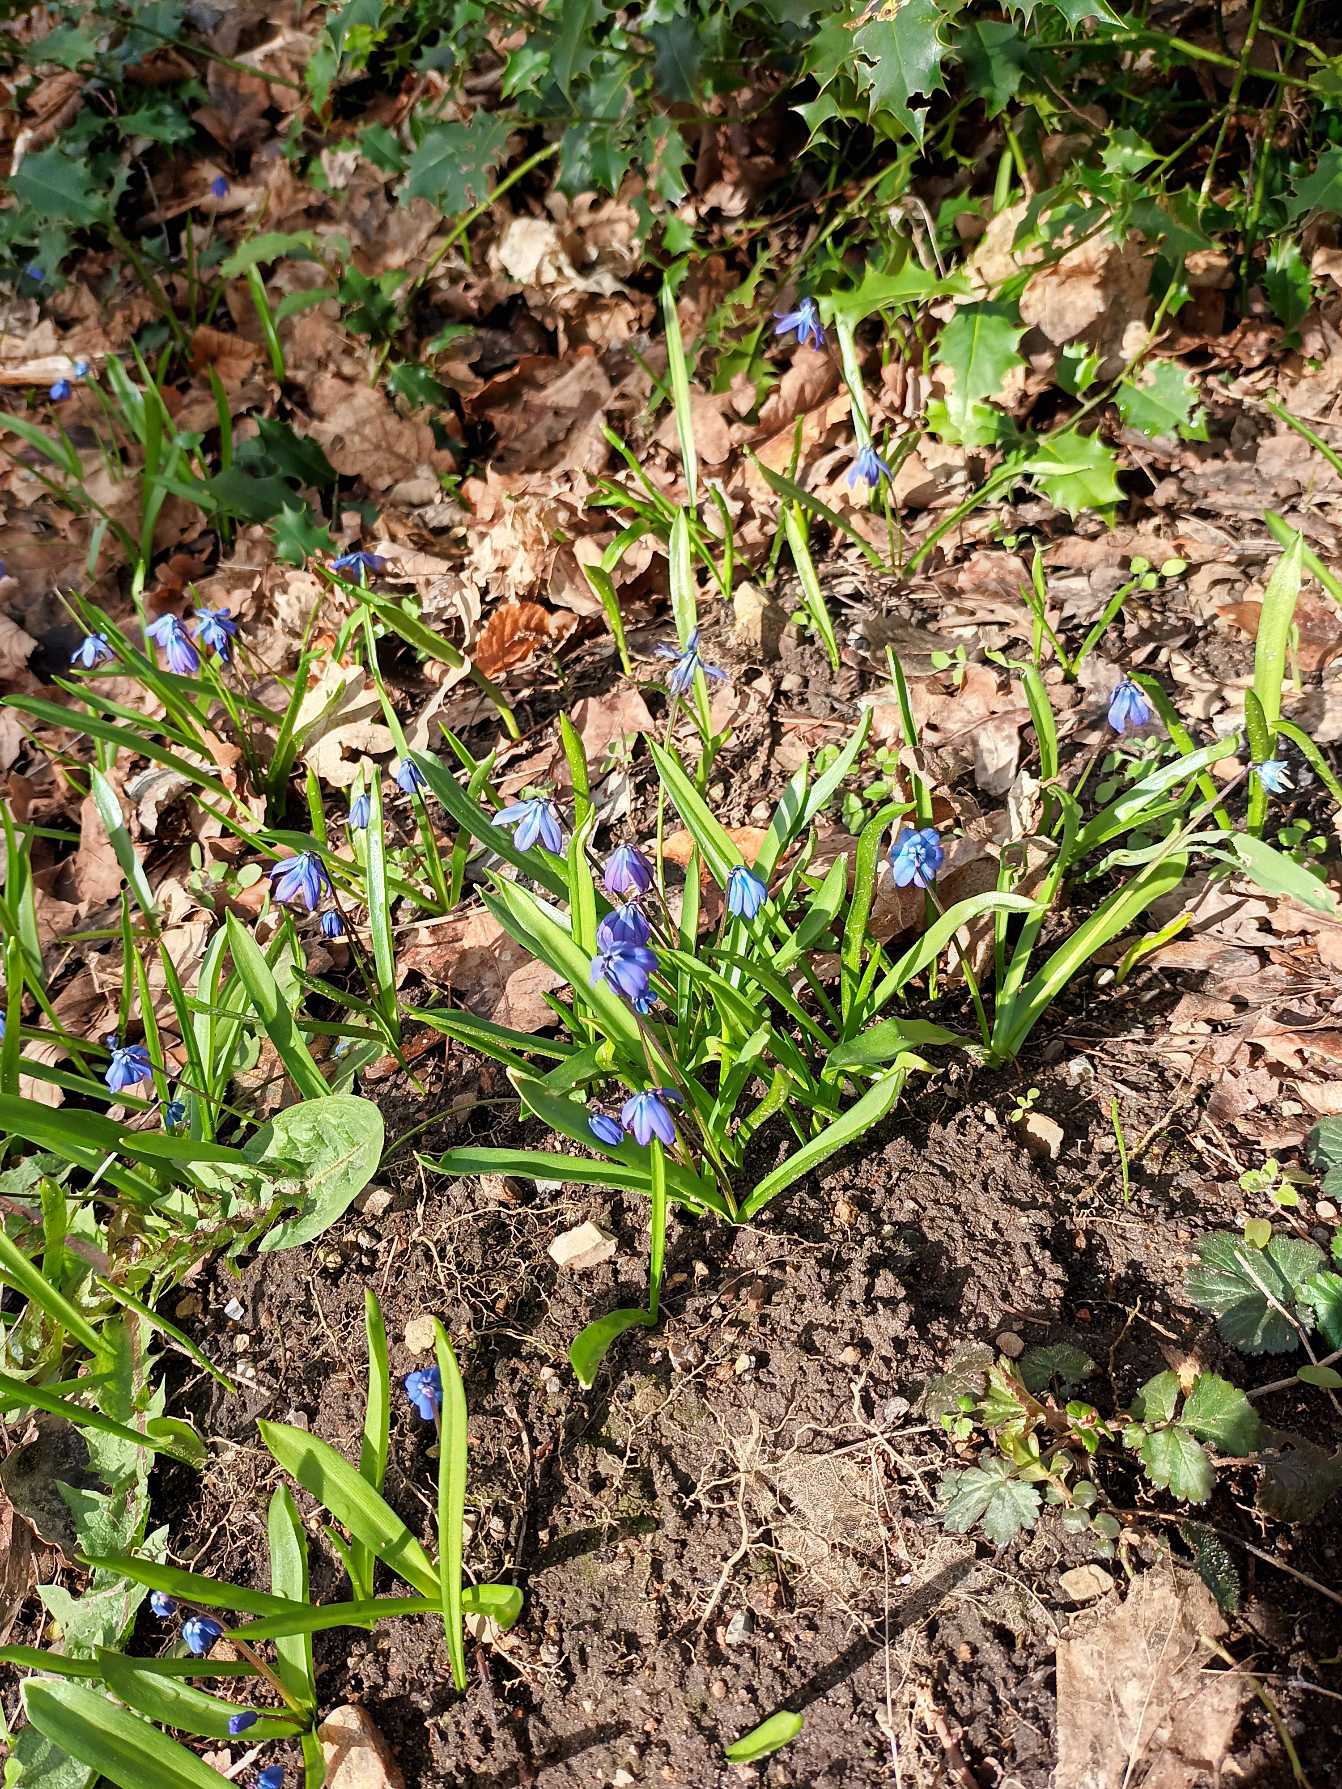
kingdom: Plantae
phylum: Tracheophyta
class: Liliopsida
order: Asparagales
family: Asparagaceae
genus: Scilla
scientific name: Scilla siberica
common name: Russisk skilla
